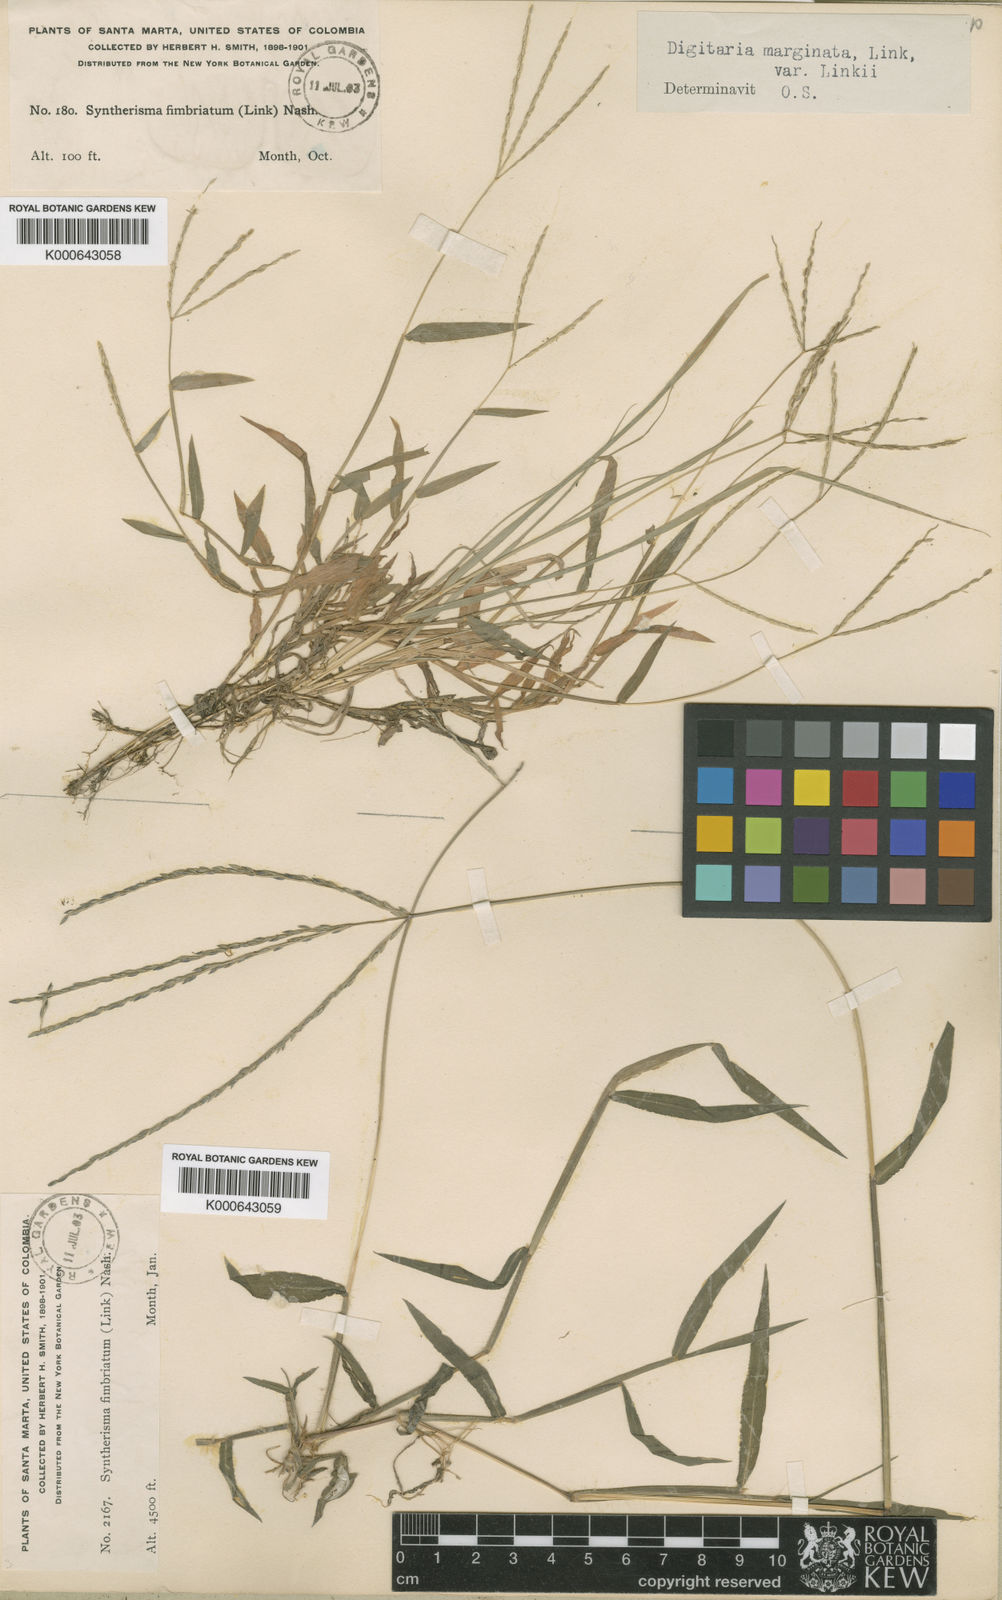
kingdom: Plantae
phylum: Tracheophyta
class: Liliopsida
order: Poales
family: Poaceae
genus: Digitaria
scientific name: Digitaria nuda
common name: Naked crabgrass
